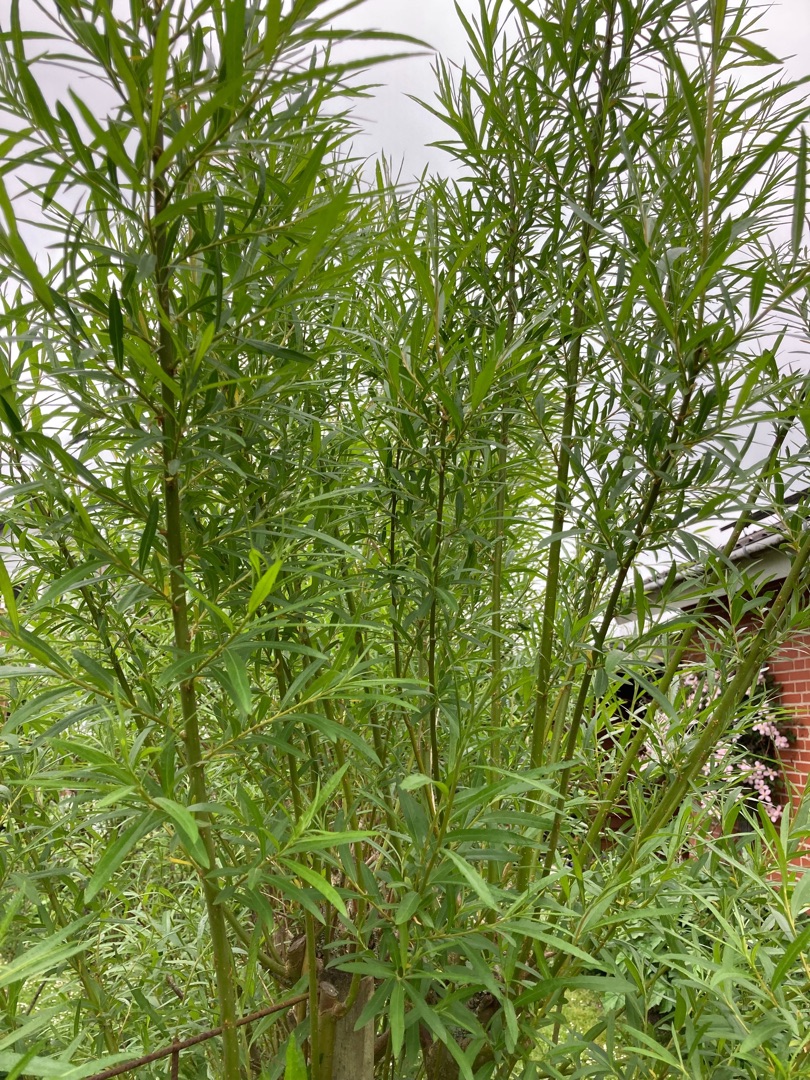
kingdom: Plantae
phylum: Tracheophyta
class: Magnoliopsida
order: Malpighiales
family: Salicaceae
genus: Salix
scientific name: Salix
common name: Pileslægten
